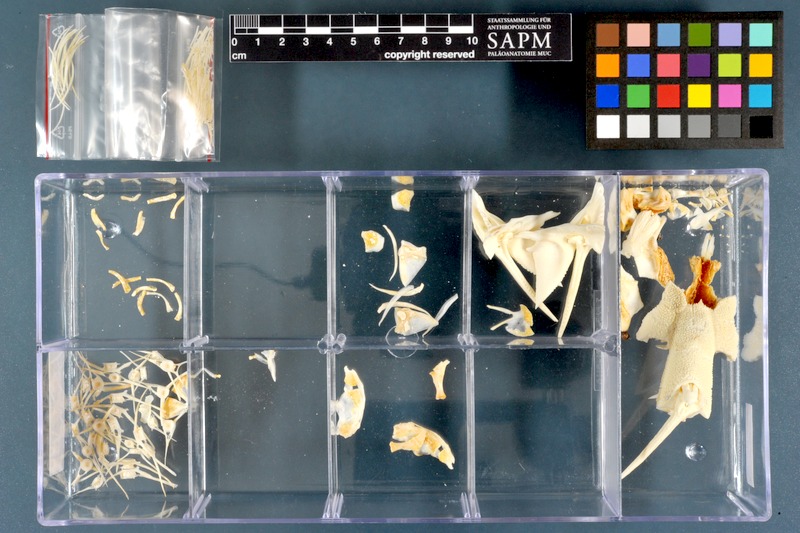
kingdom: Animalia
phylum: Chordata
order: Siluriformes
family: Mochokidae
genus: Synodontis
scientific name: Synodontis
